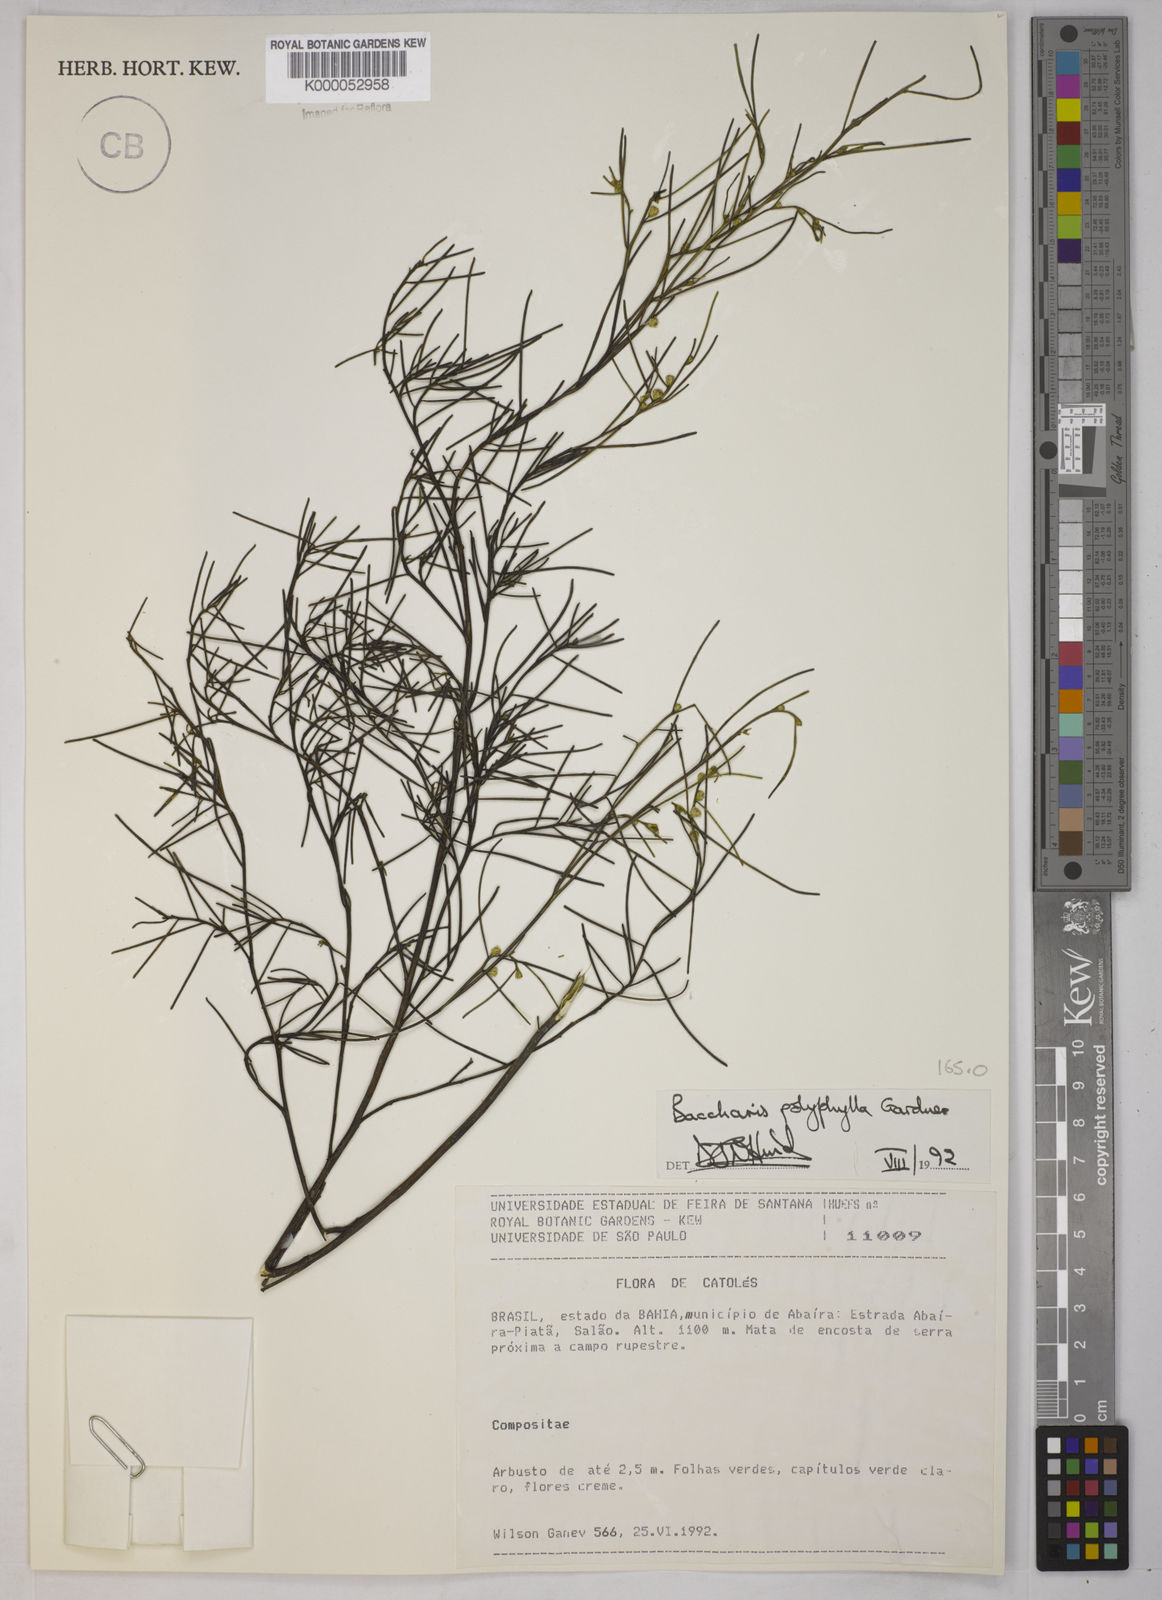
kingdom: Plantae
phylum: Tracheophyta
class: Magnoliopsida
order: Asterales
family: Asteraceae
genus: Baccharis
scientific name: Baccharis polyphylla
